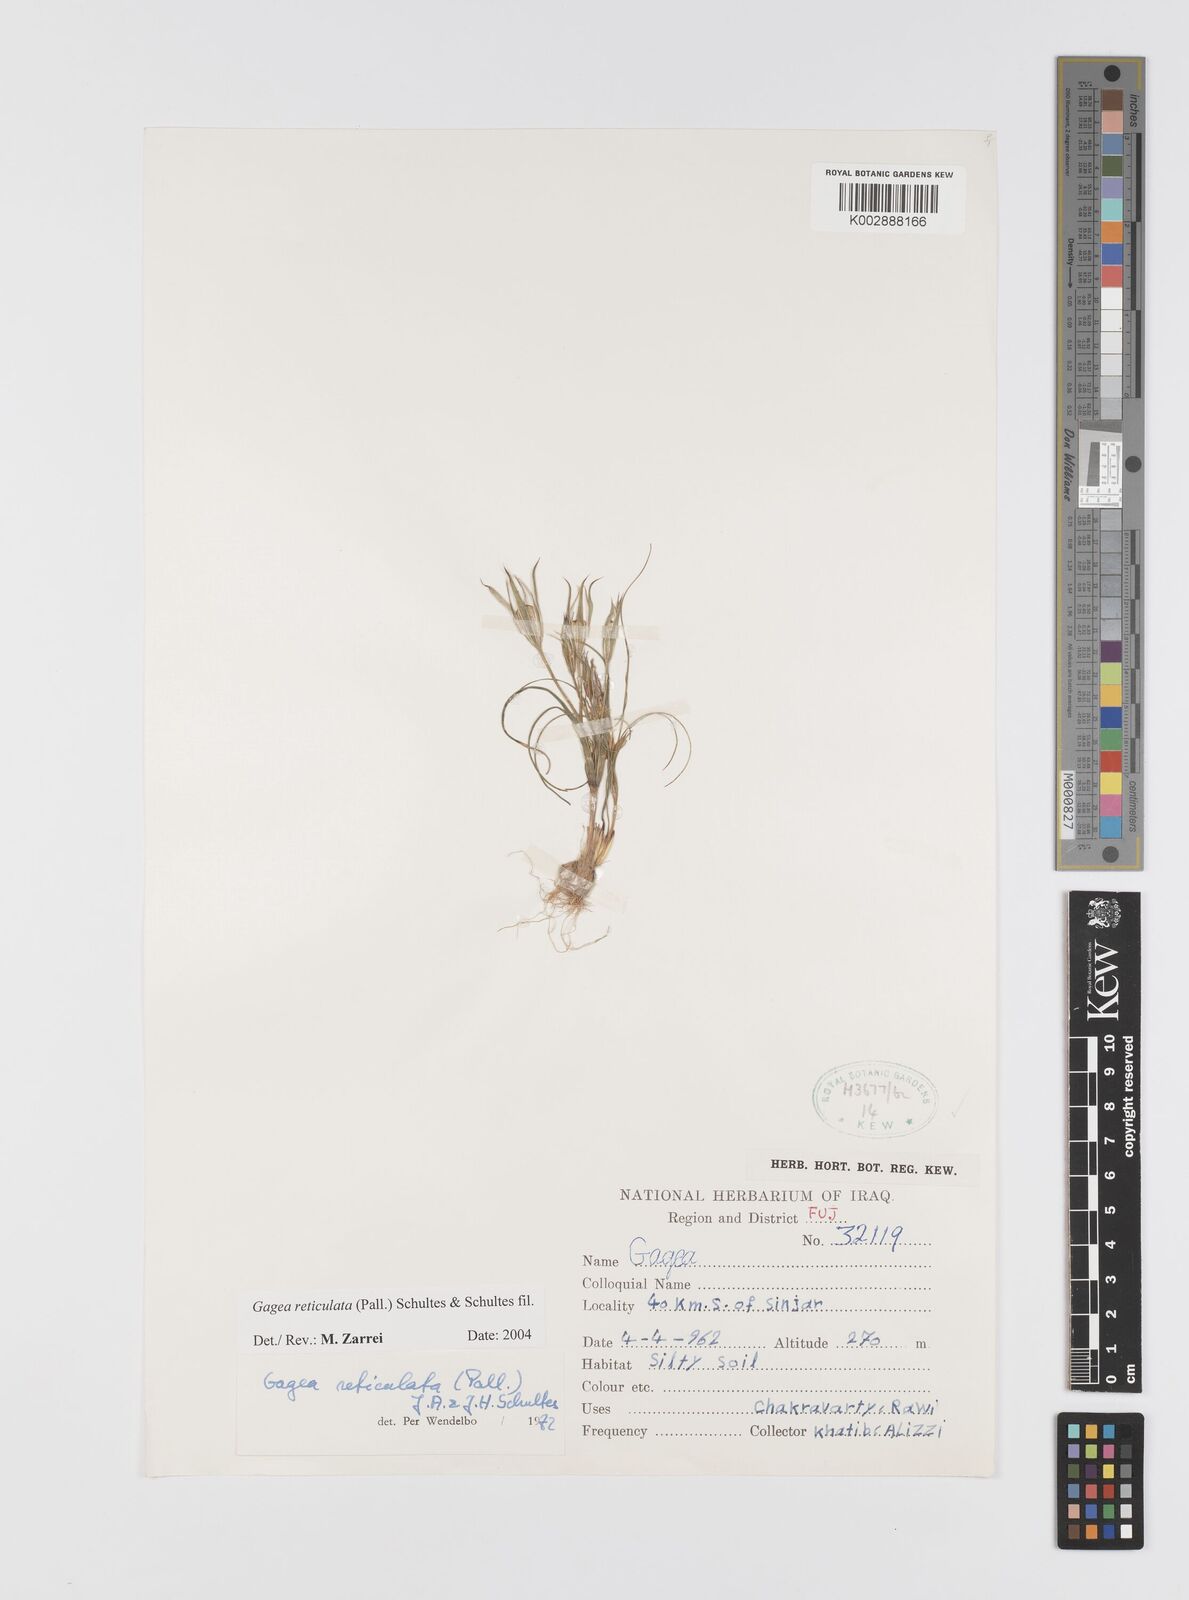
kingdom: Plantae
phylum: Tracheophyta
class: Liliopsida
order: Liliales
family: Liliaceae
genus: Gagea
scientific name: Gagea reticulata
